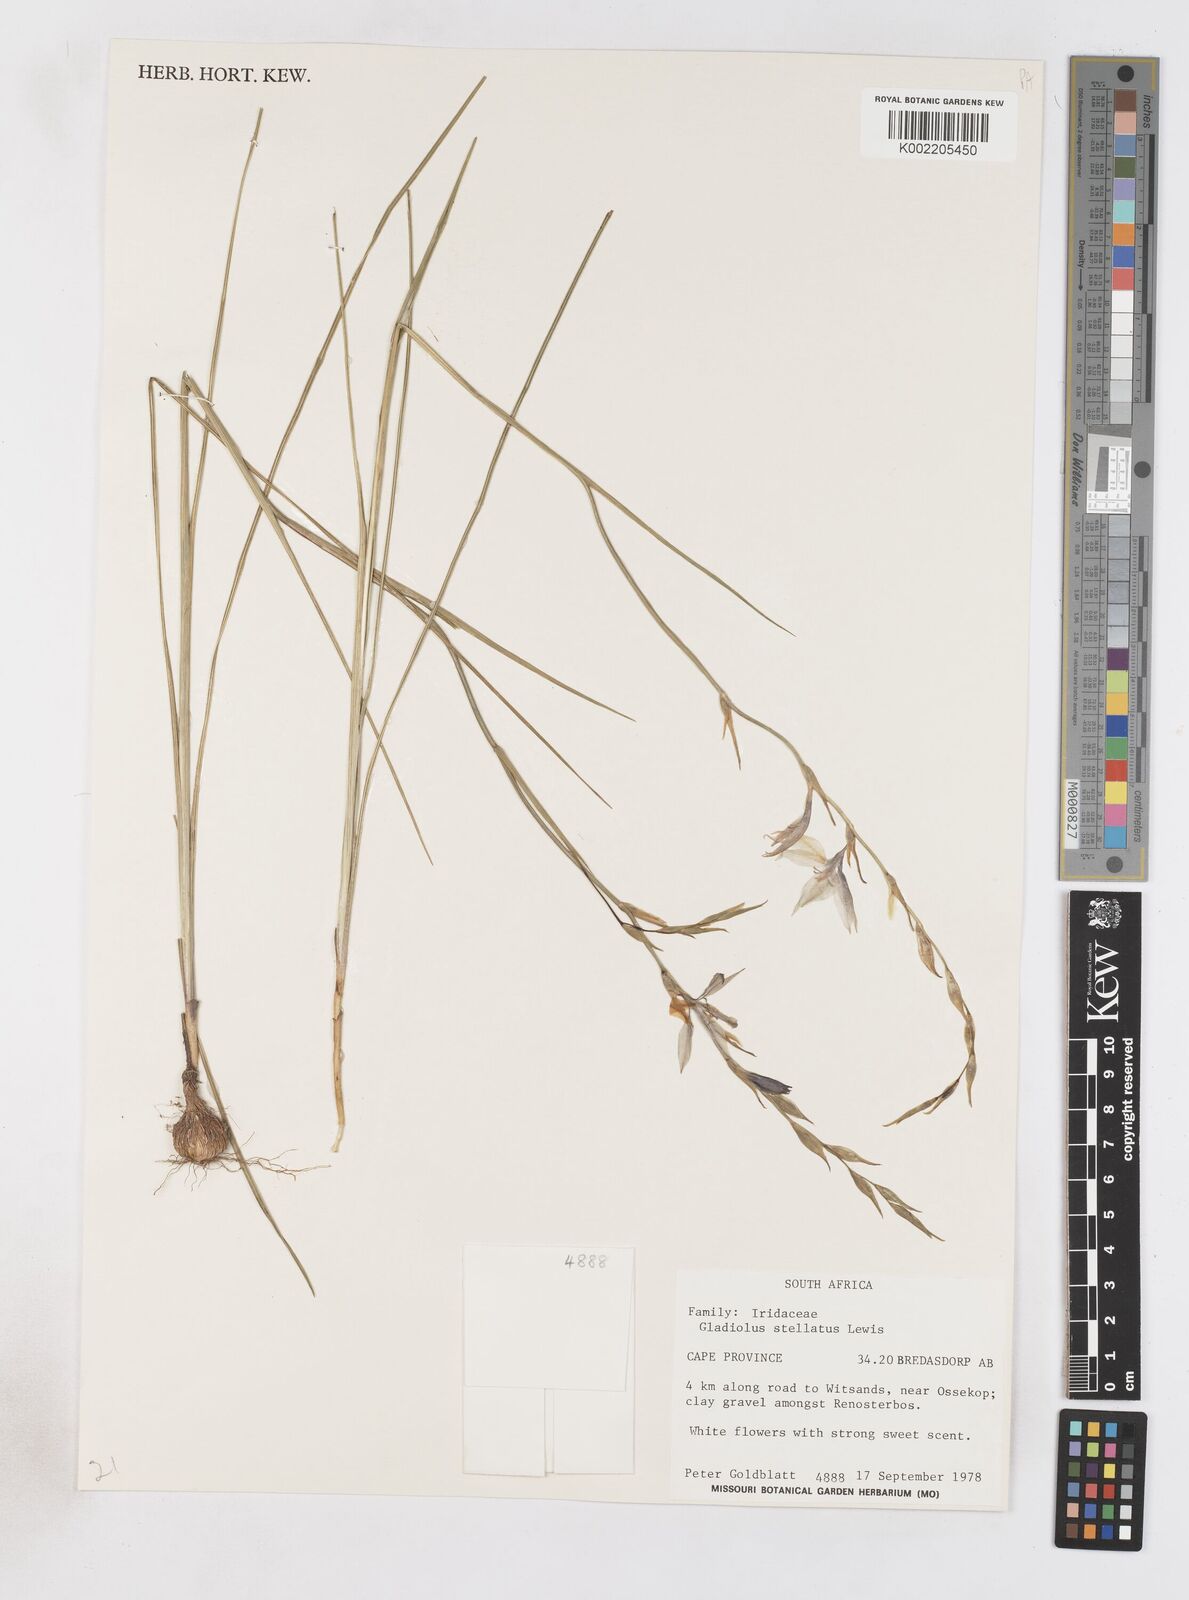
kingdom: Plantae
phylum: Tracheophyta
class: Liliopsida
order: Asparagales
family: Iridaceae
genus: Gladiolus
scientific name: Gladiolus stellatus
